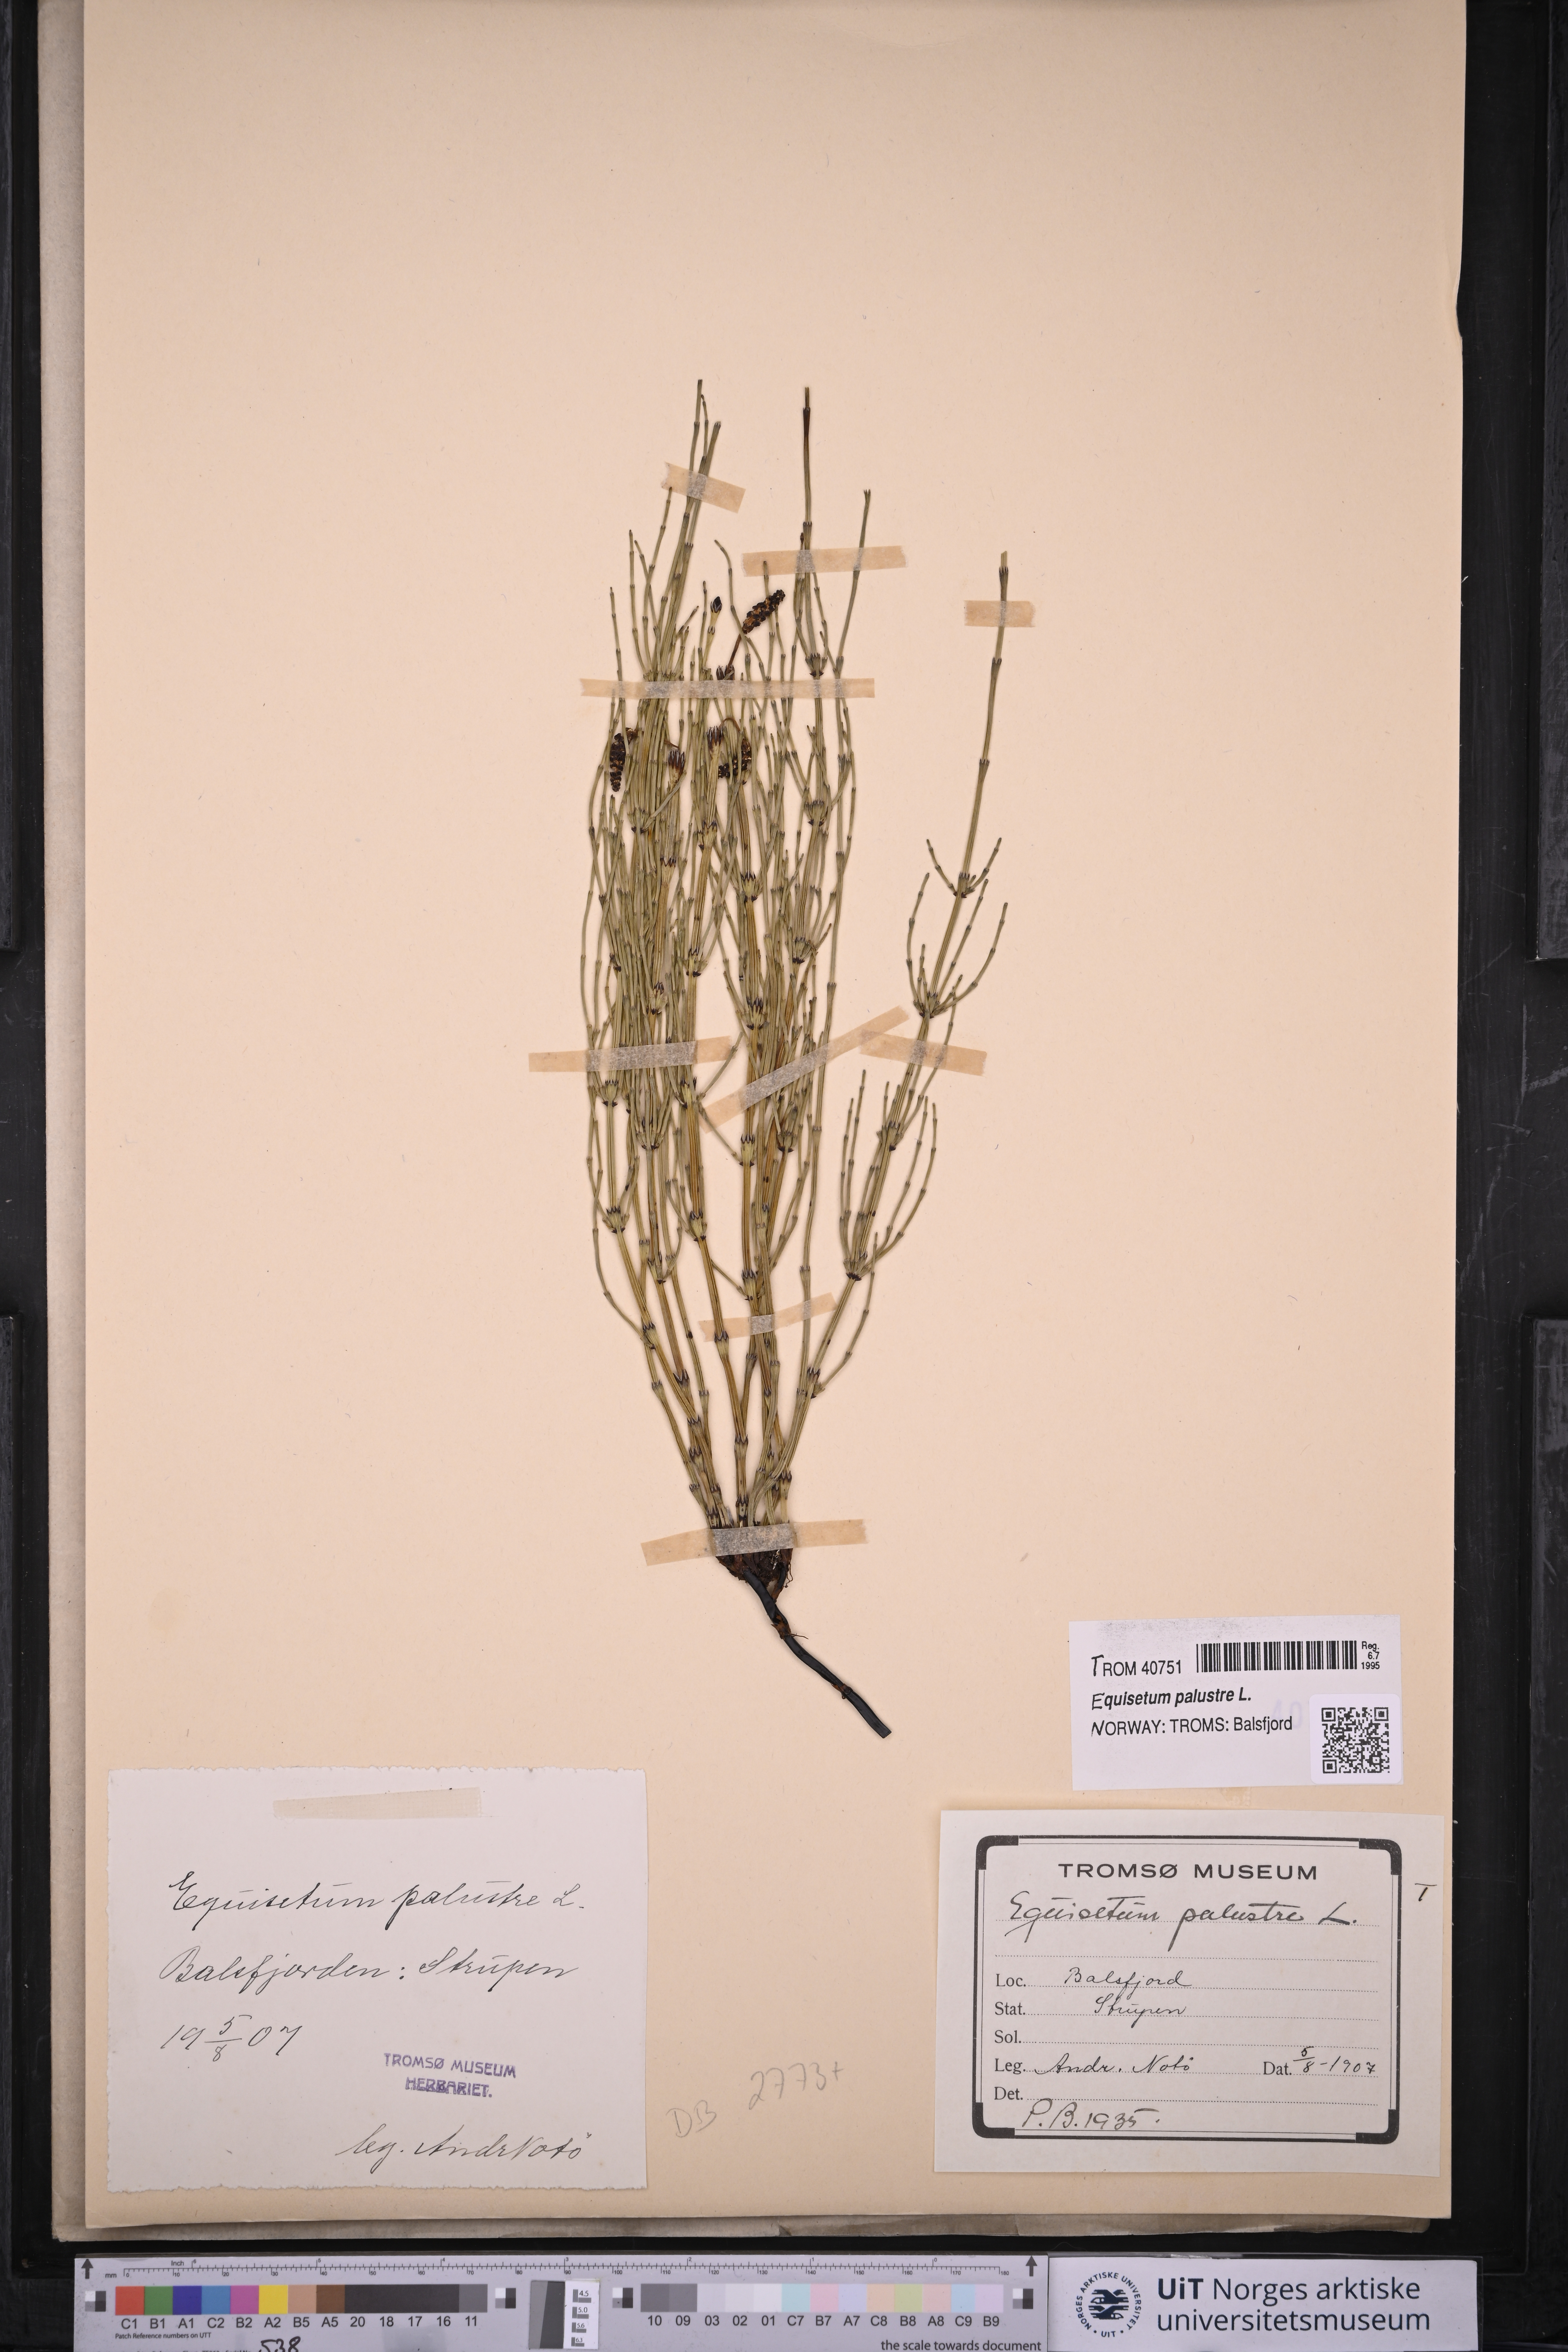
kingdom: Plantae
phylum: Tracheophyta
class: Polypodiopsida
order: Equisetales
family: Equisetaceae
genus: Equisetum
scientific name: Equisetum palustre
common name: Marsh horsetail
